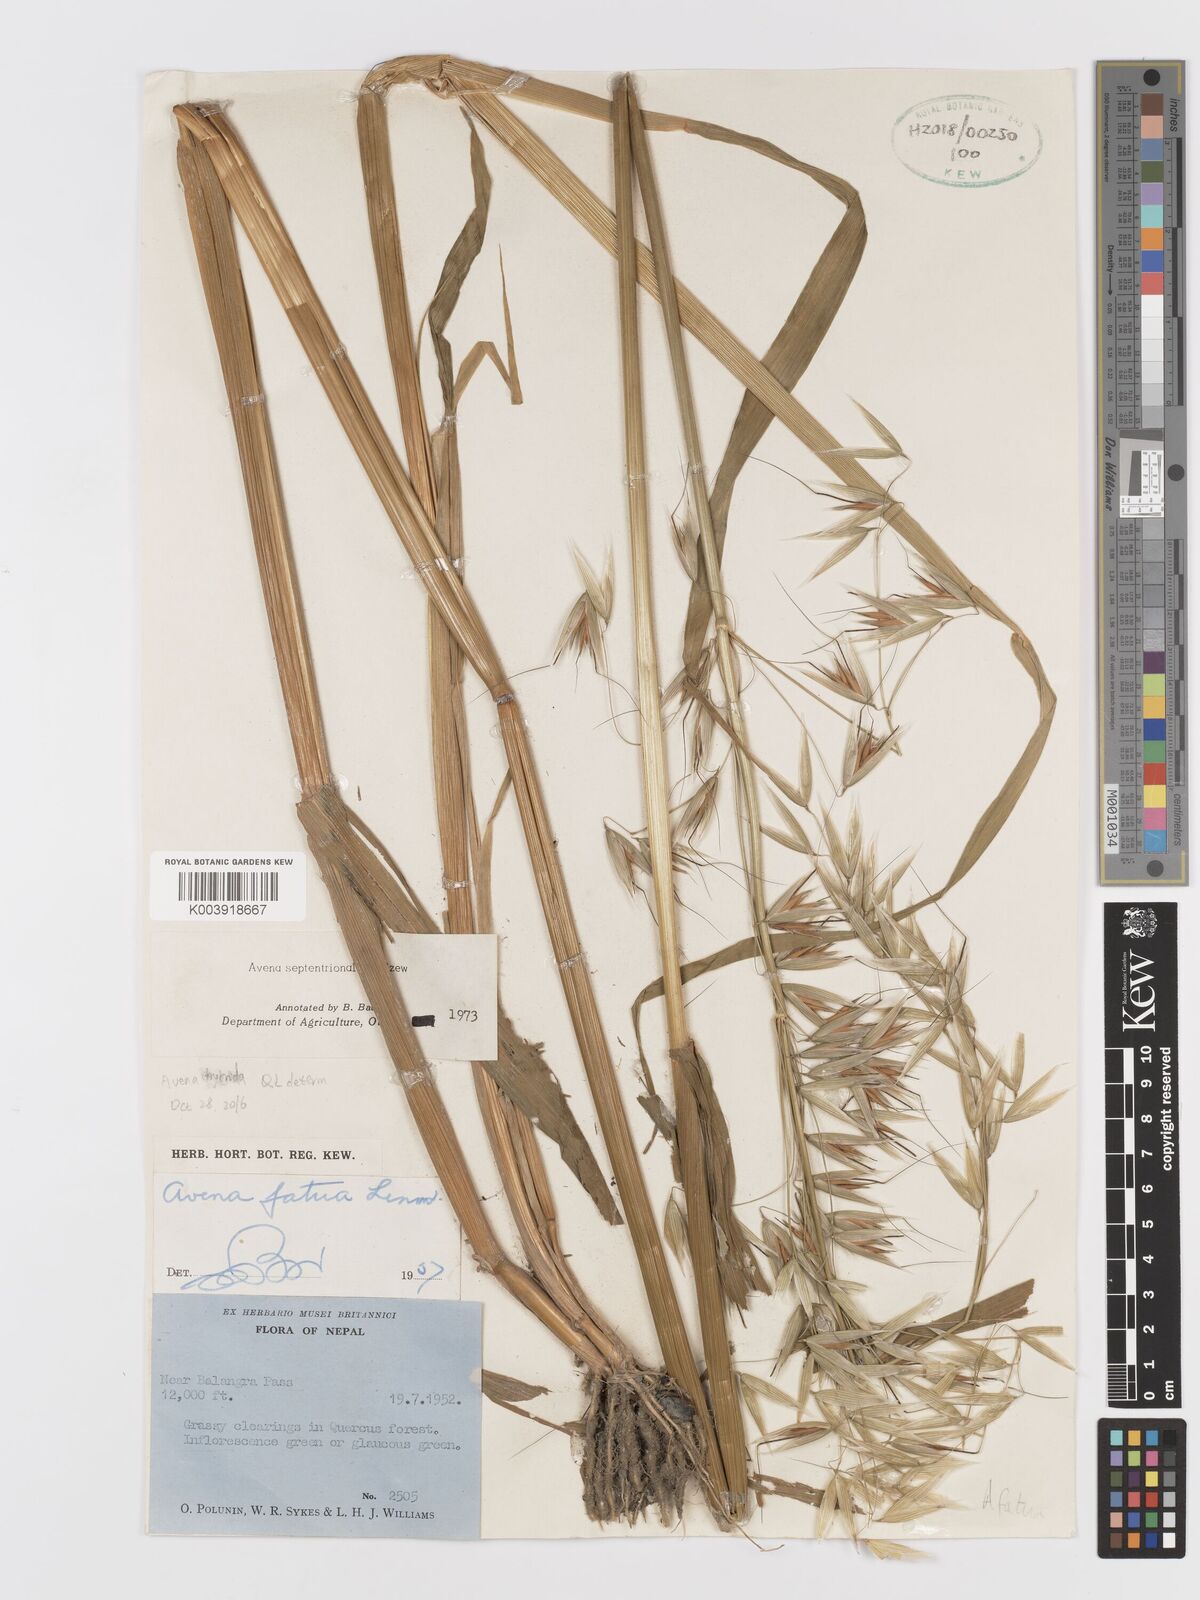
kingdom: Plantae
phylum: Tracheophyta
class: Liliopsida
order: Poales
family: Poaceae
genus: Avena
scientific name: Avena fatua
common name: Wild oat
